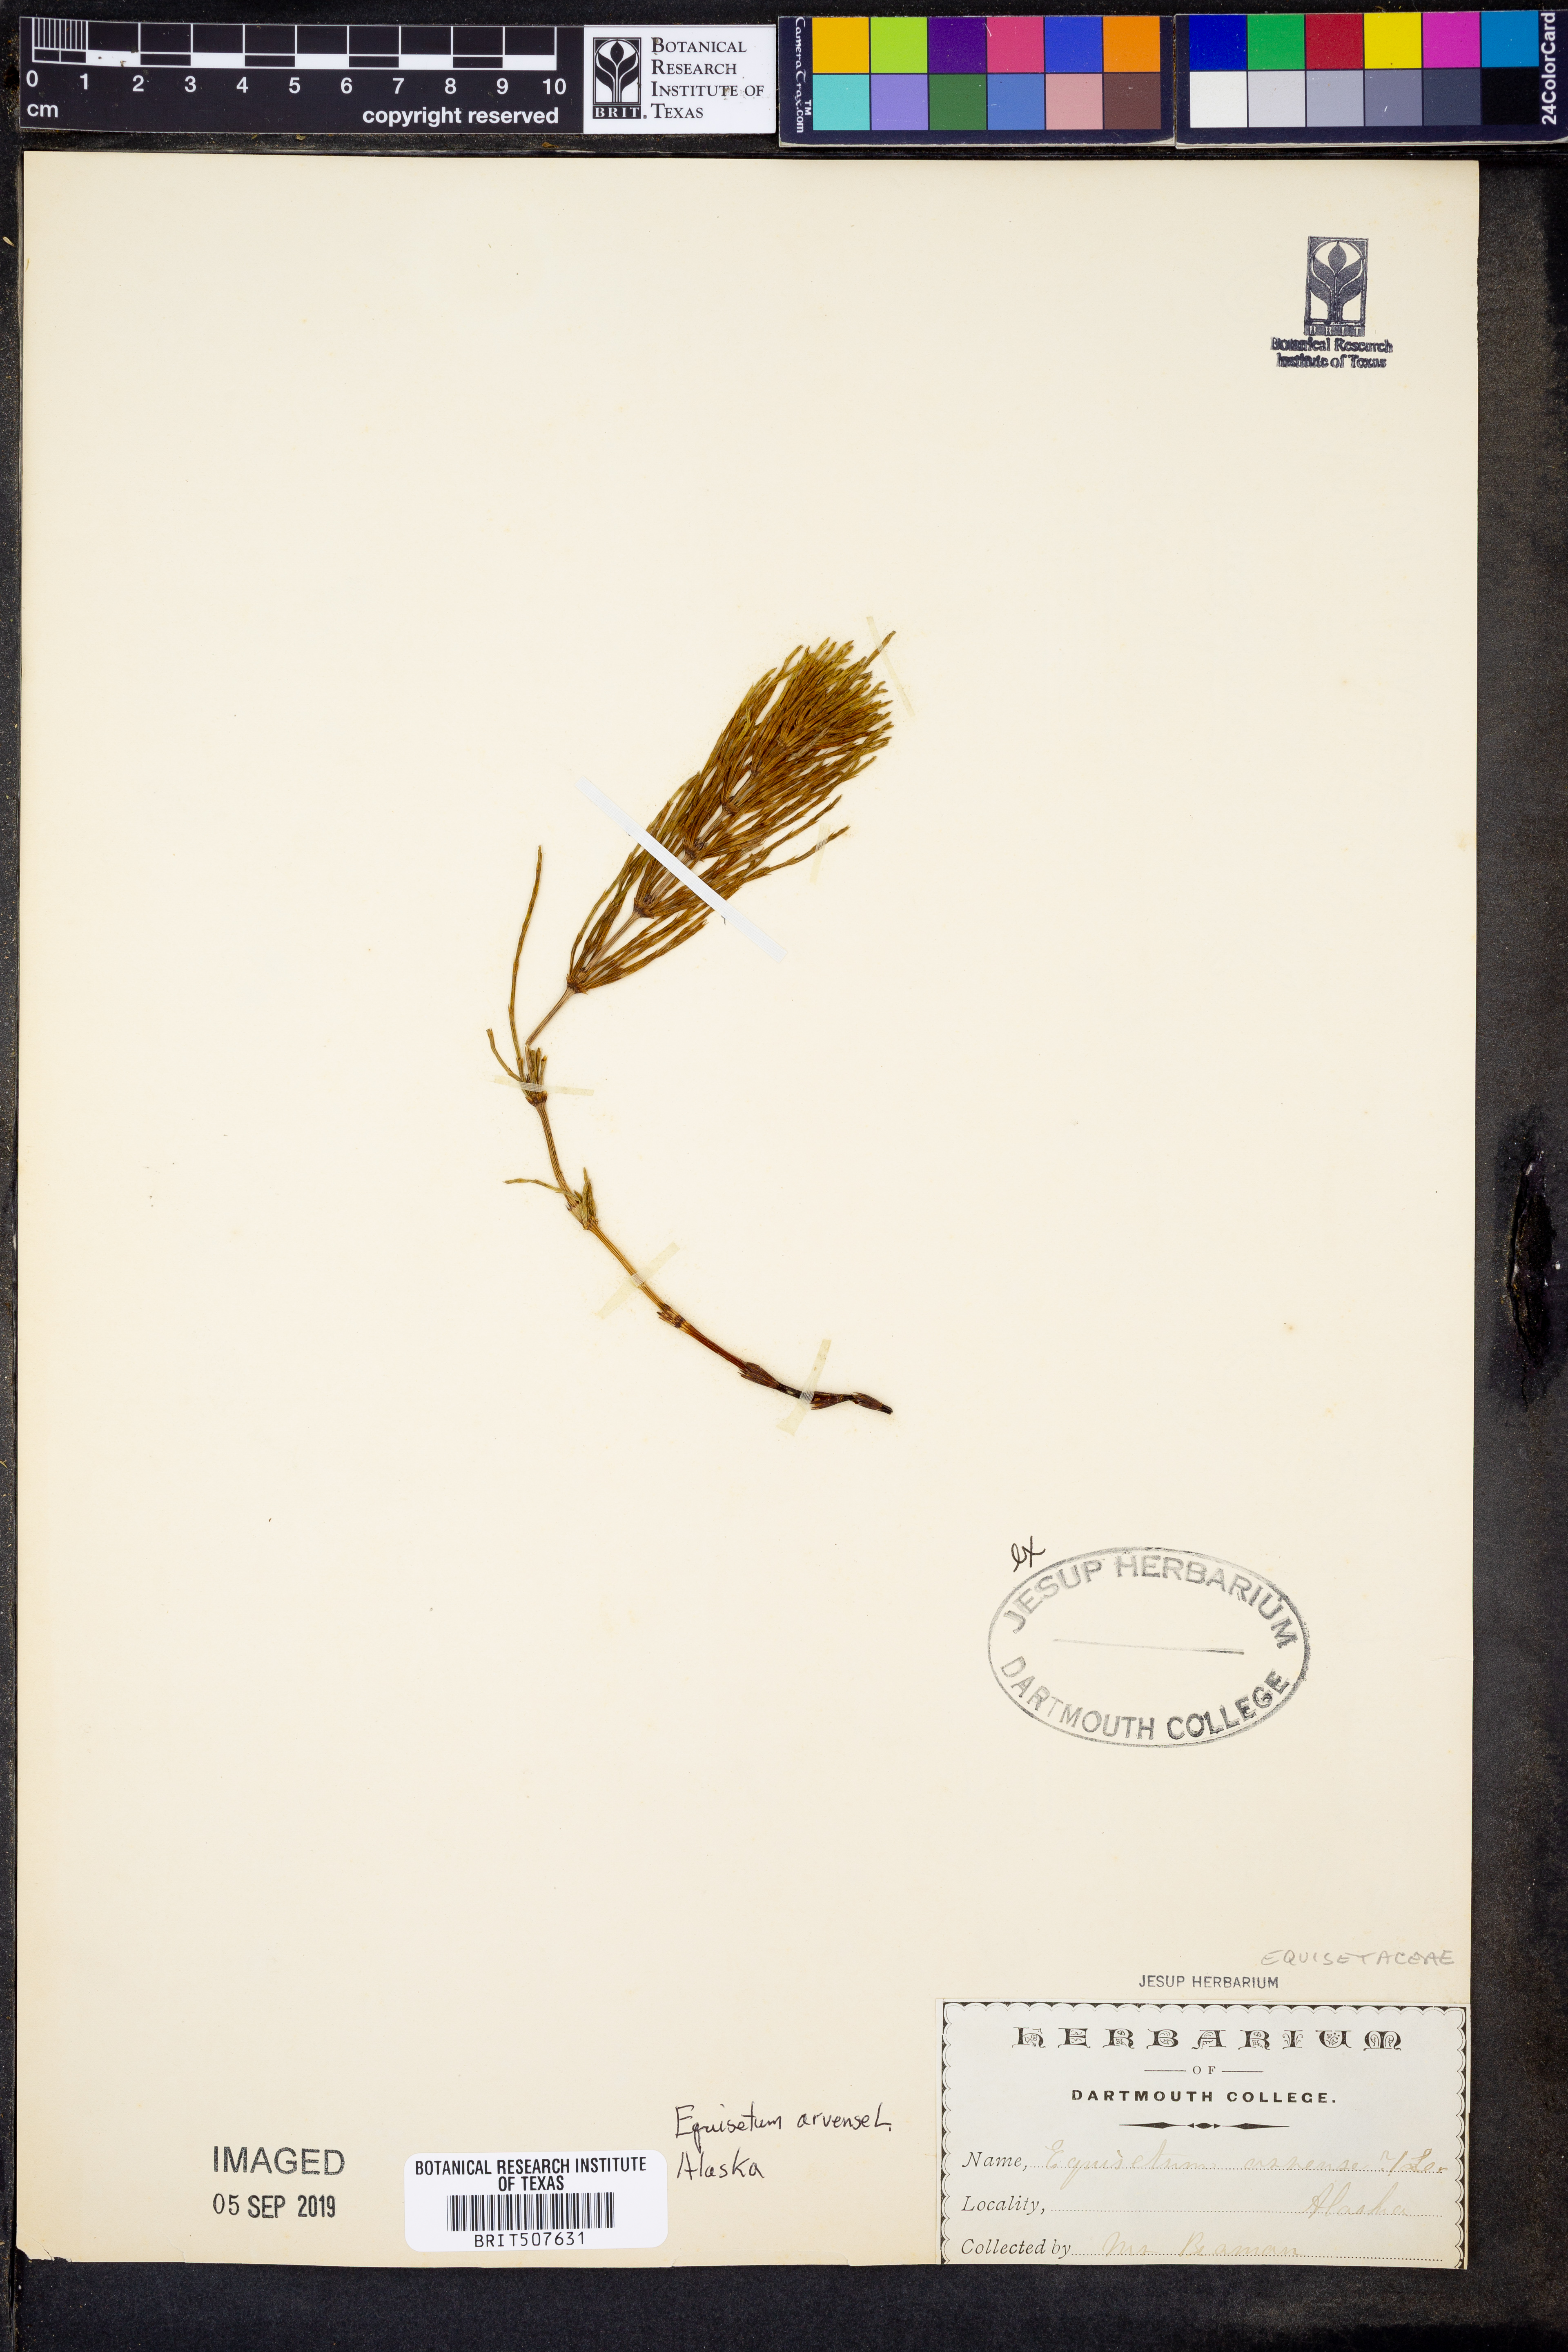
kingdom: Plantae
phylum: Tracheophyta
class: Polypodiopsida
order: Equisetales
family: Equisetaceae
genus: Equisetum
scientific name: Equisetum arvense
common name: Field horsetail
